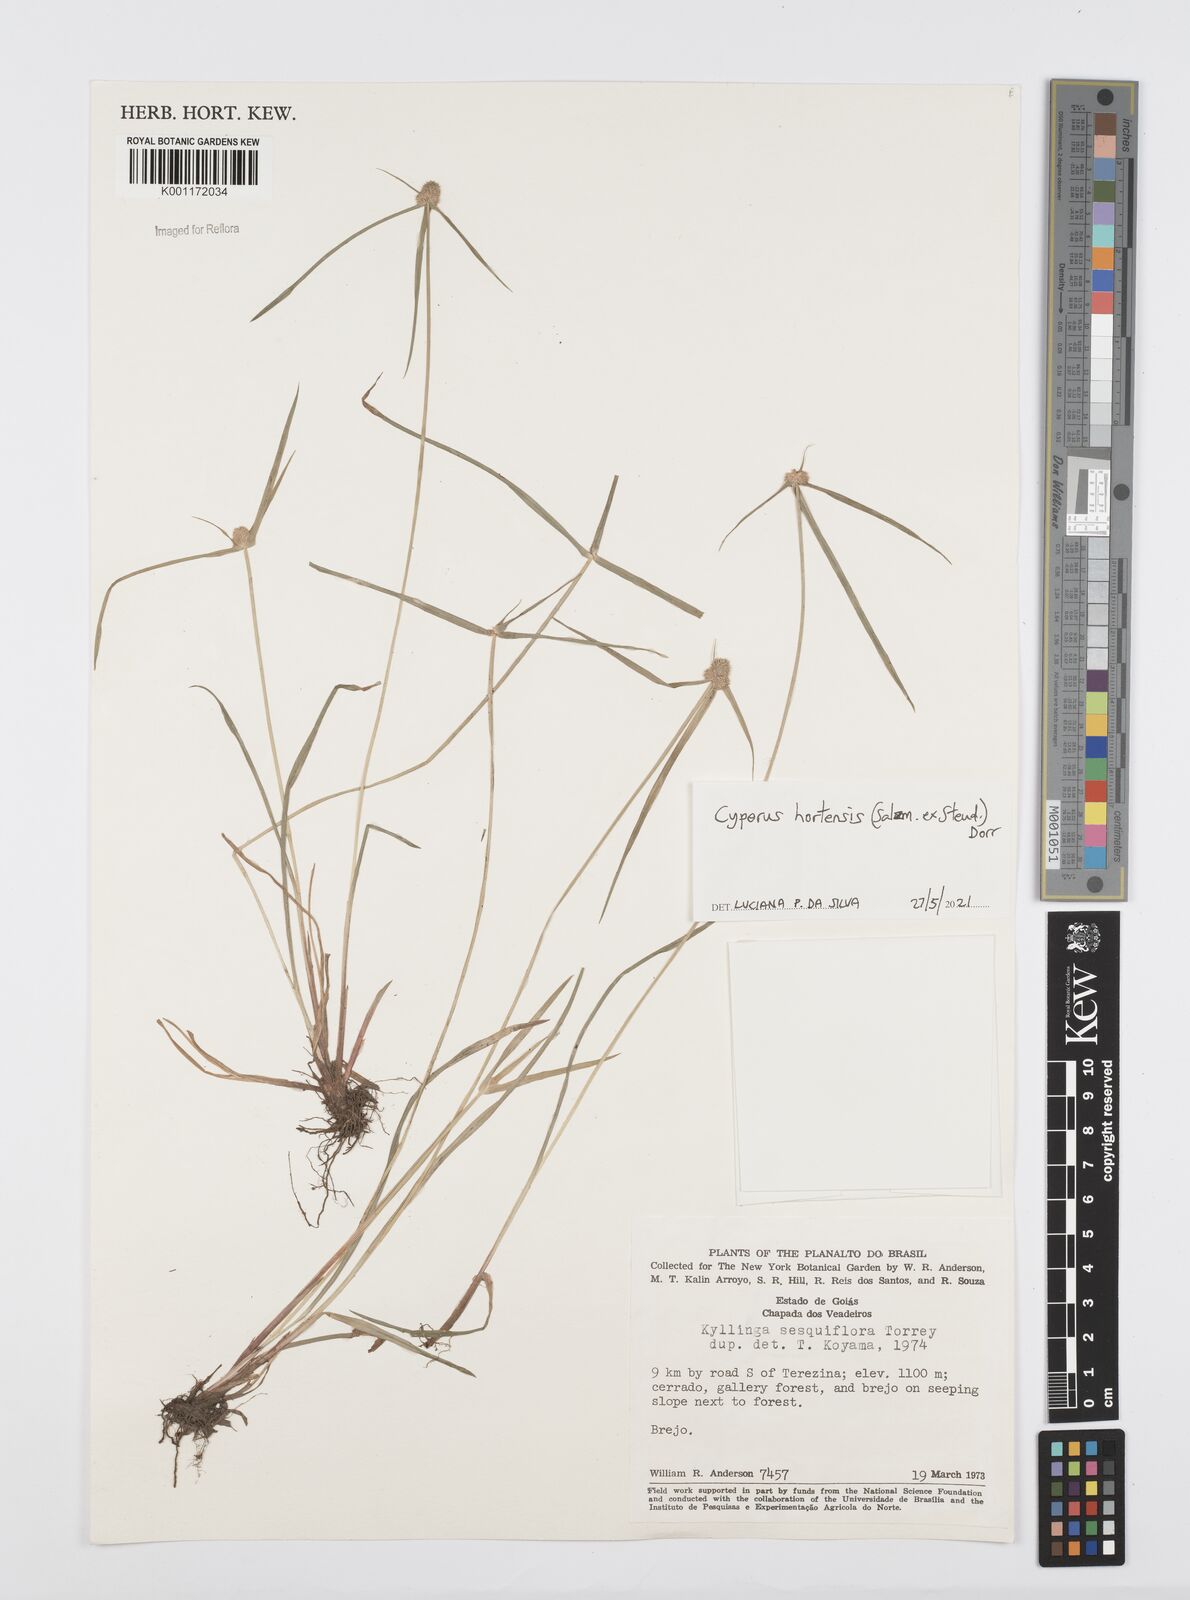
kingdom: Plantae
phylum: Tracheophyta
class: Liliopsida
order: Poales
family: Cyperaceae
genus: Cyperus
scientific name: Cyperus
